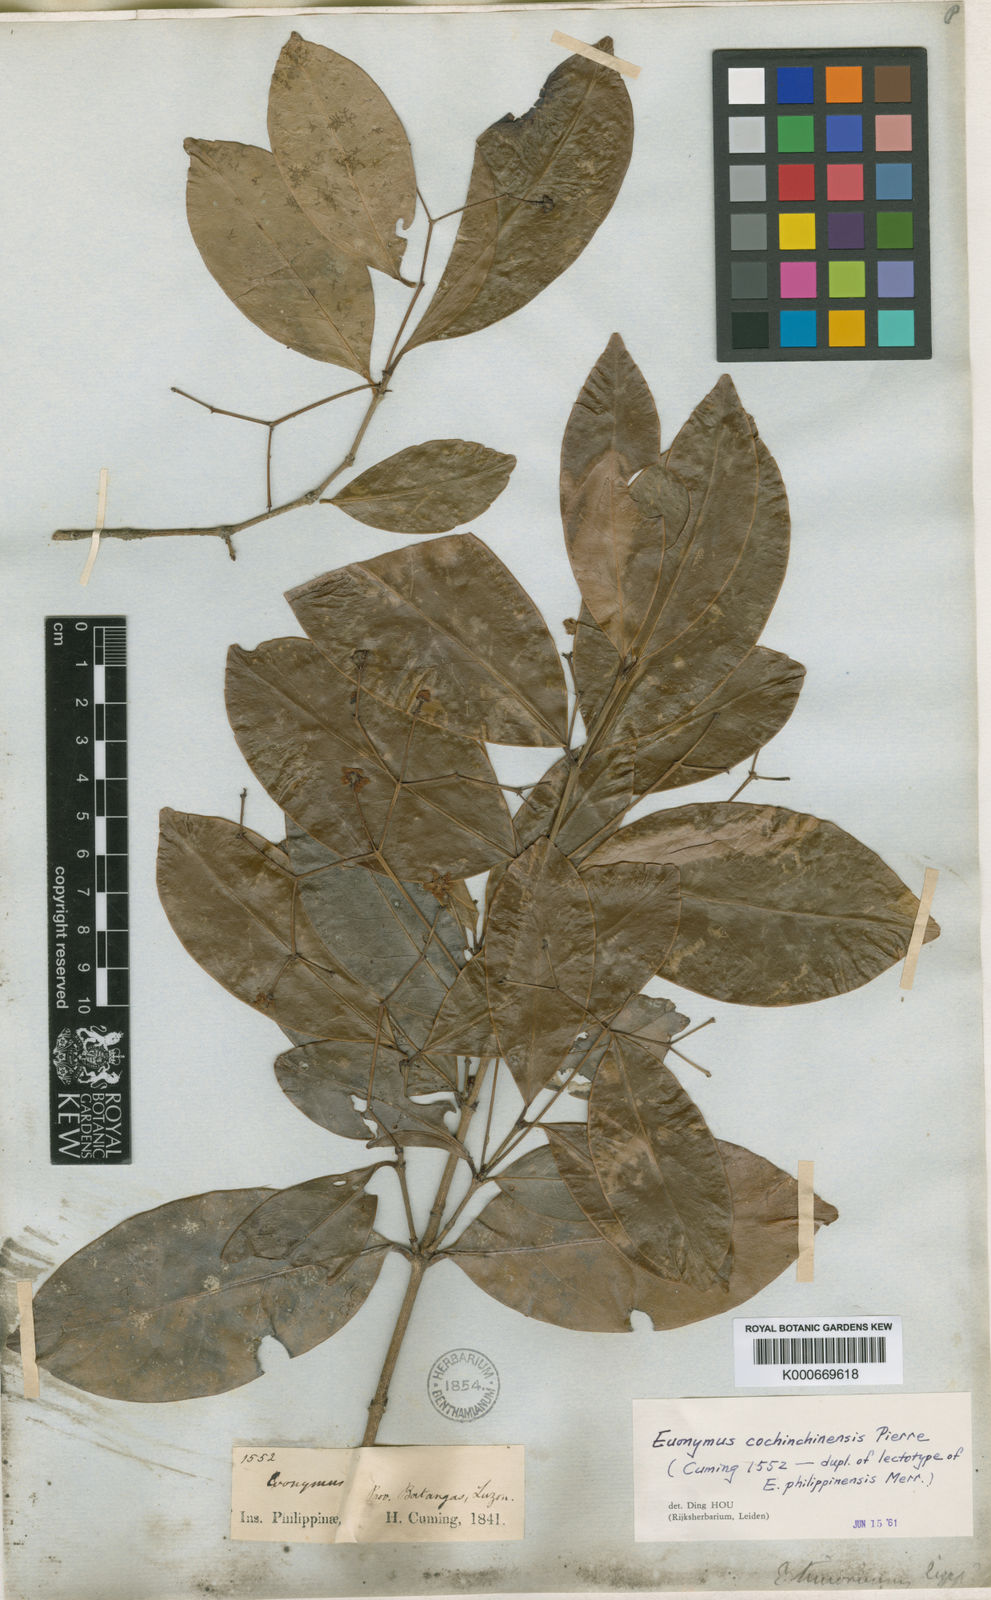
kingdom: Plantae
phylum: Tracheophyta
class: Magnoliopsida
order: Celastrales
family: Celastraceae
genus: Euonymus
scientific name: Euonymus cochinchinensis
